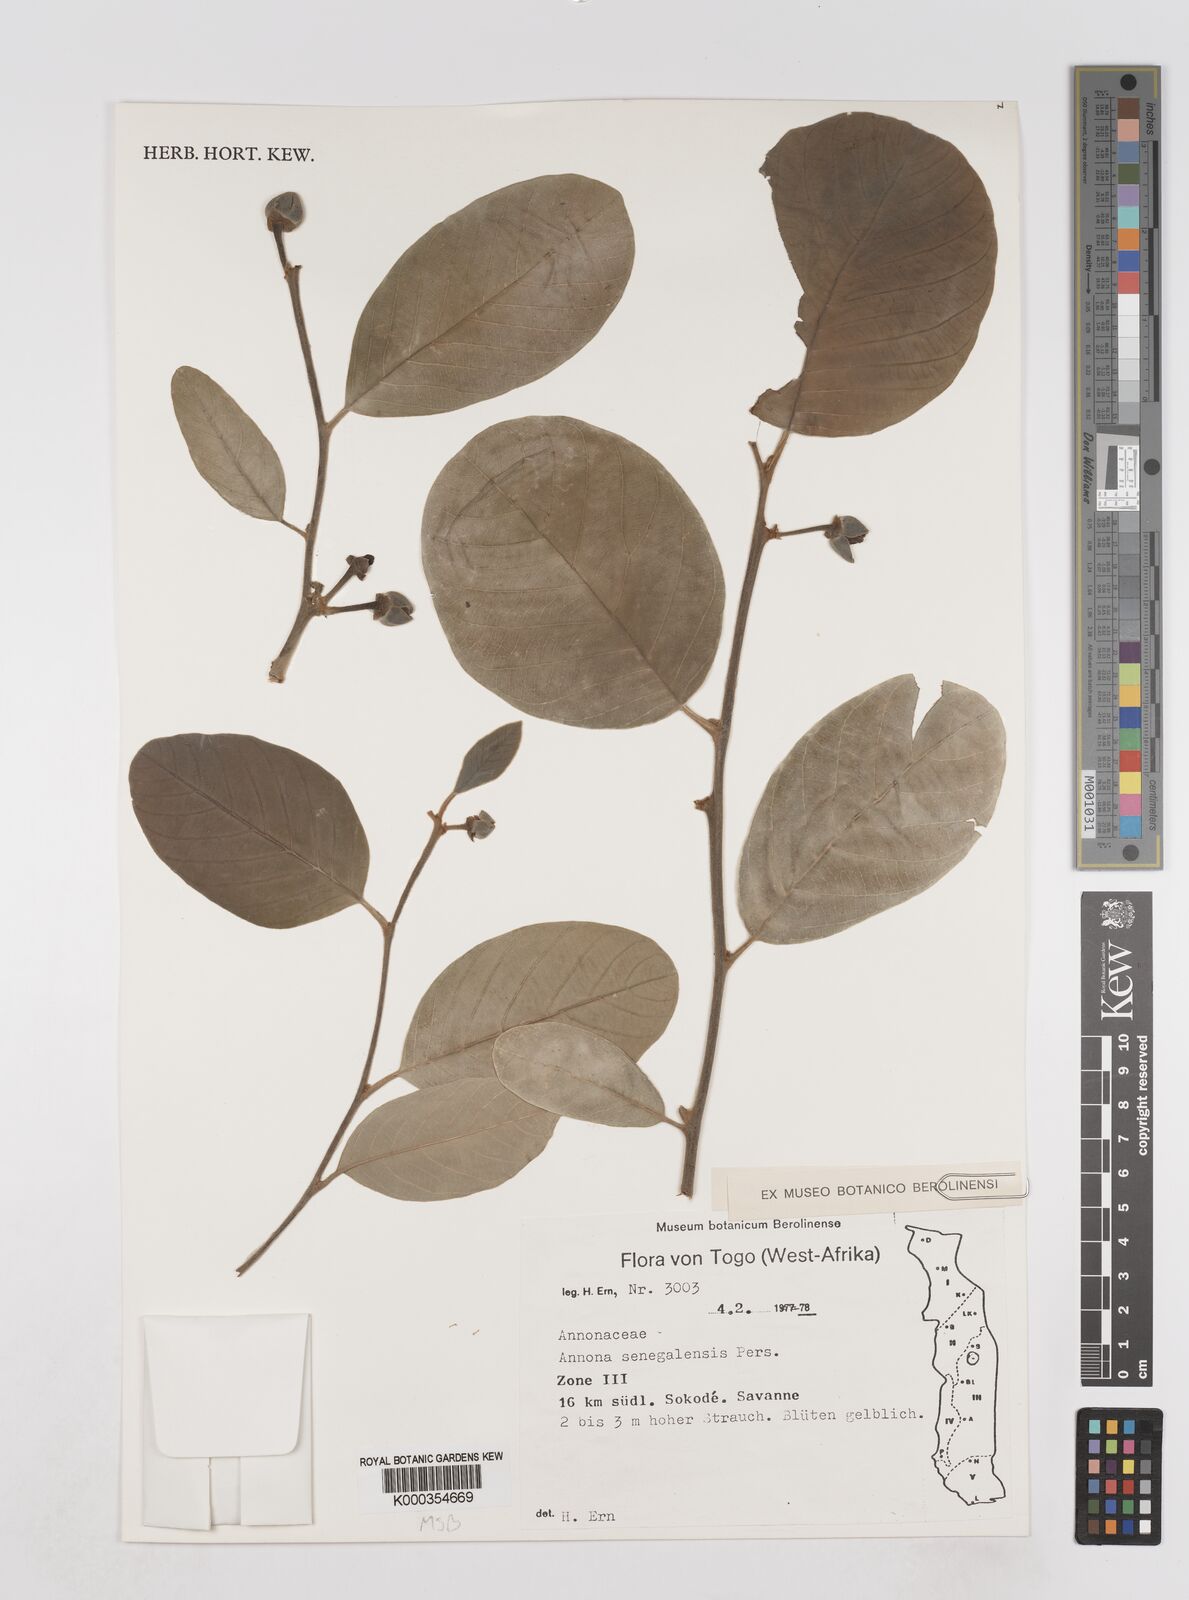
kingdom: Plantae
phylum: Tracheophyta
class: Magnoliopsida
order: Magnoliales
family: Annonaceae
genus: Annona
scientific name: Annona senegalensis
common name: Wild custard-apple
